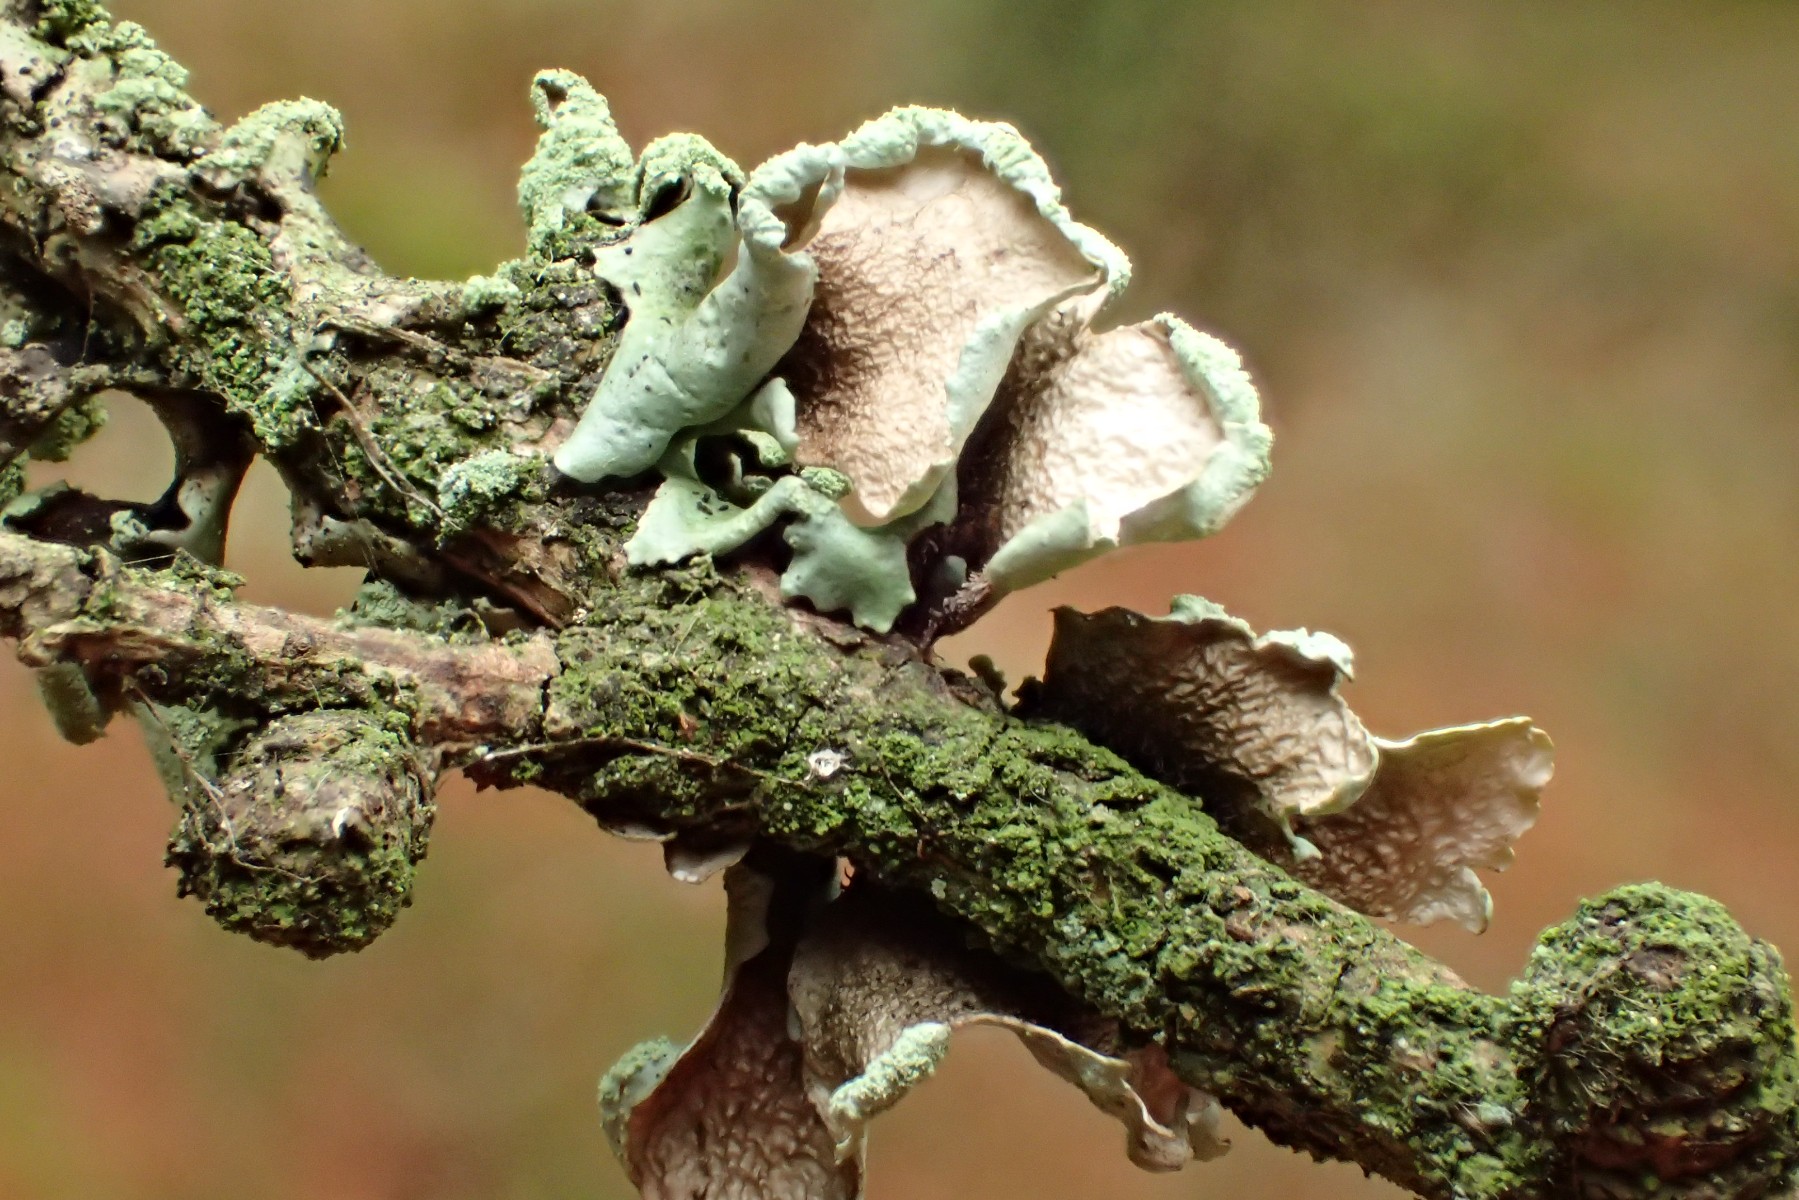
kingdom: Fungi
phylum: Ascomycota
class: Lecanoromycetes
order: Lecanorales
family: Parmeliaceae
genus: Hypotrachyna
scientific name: Hypotrachyna revoluta
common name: bleggrå skållav
